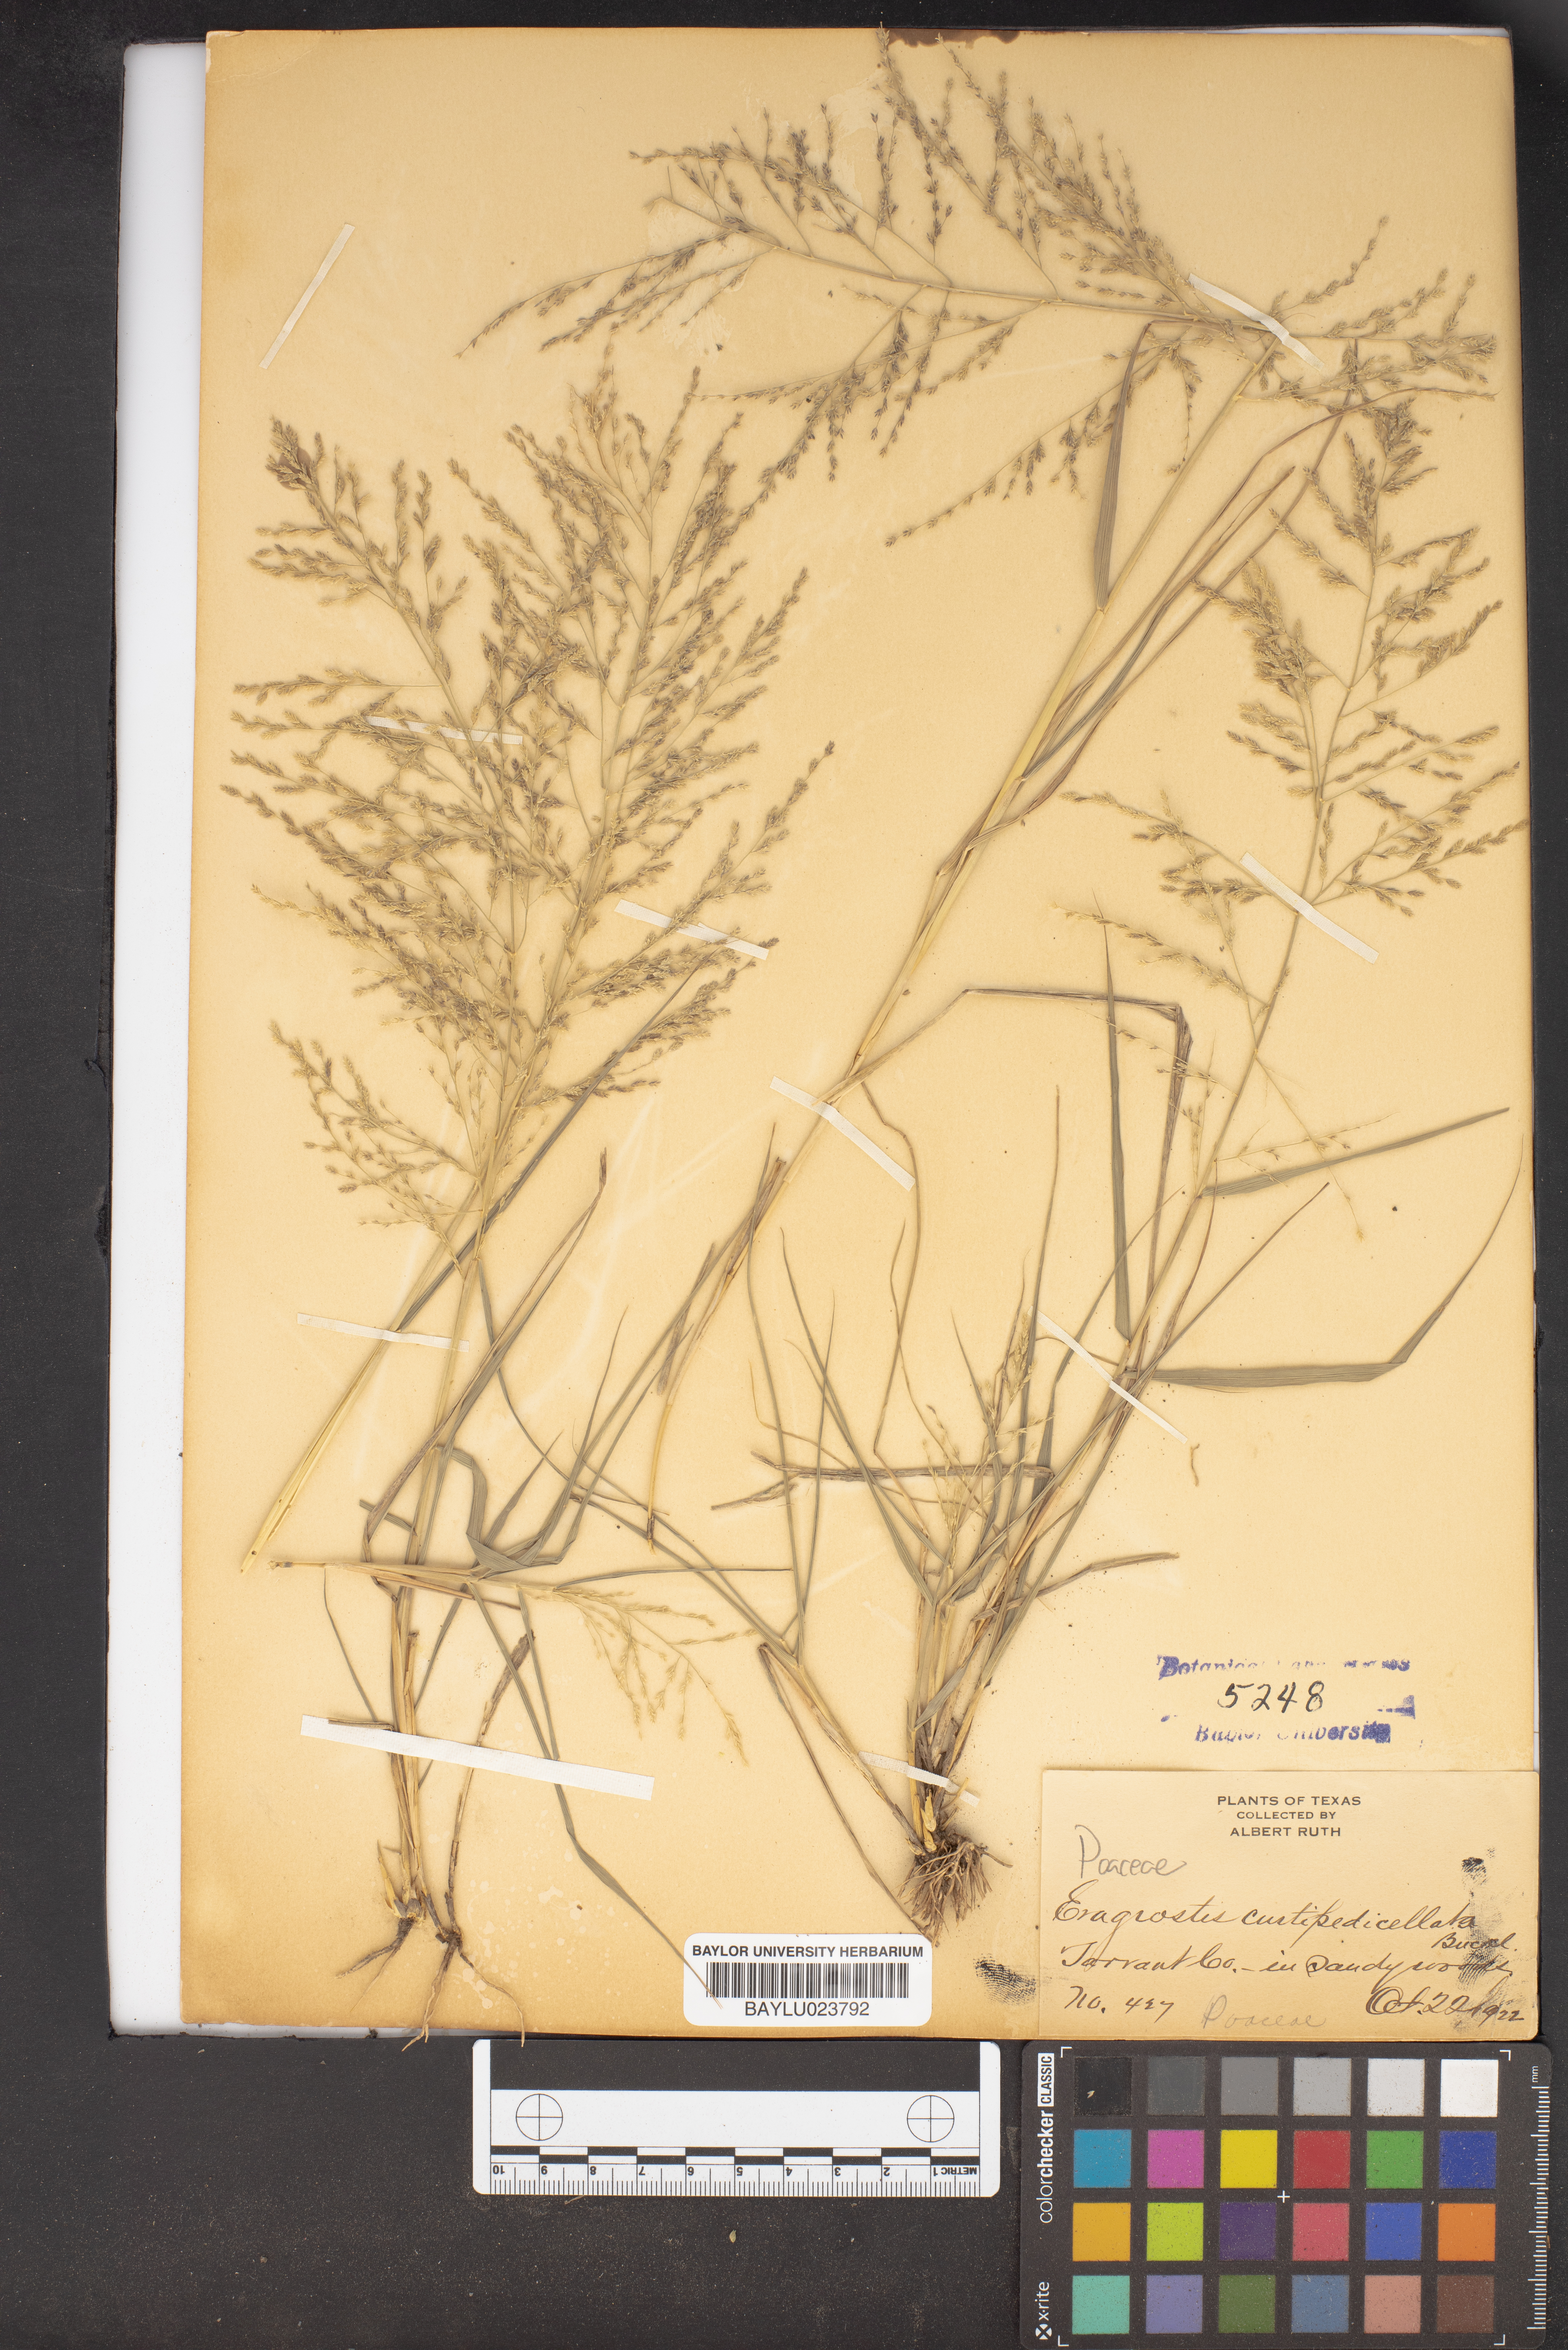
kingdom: Plantae
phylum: Tracheophyta
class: Liliopsida
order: Poales
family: Poaceae
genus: Eragrostis
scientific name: Eragrostis curtipedicellata
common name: Gummy love grass
